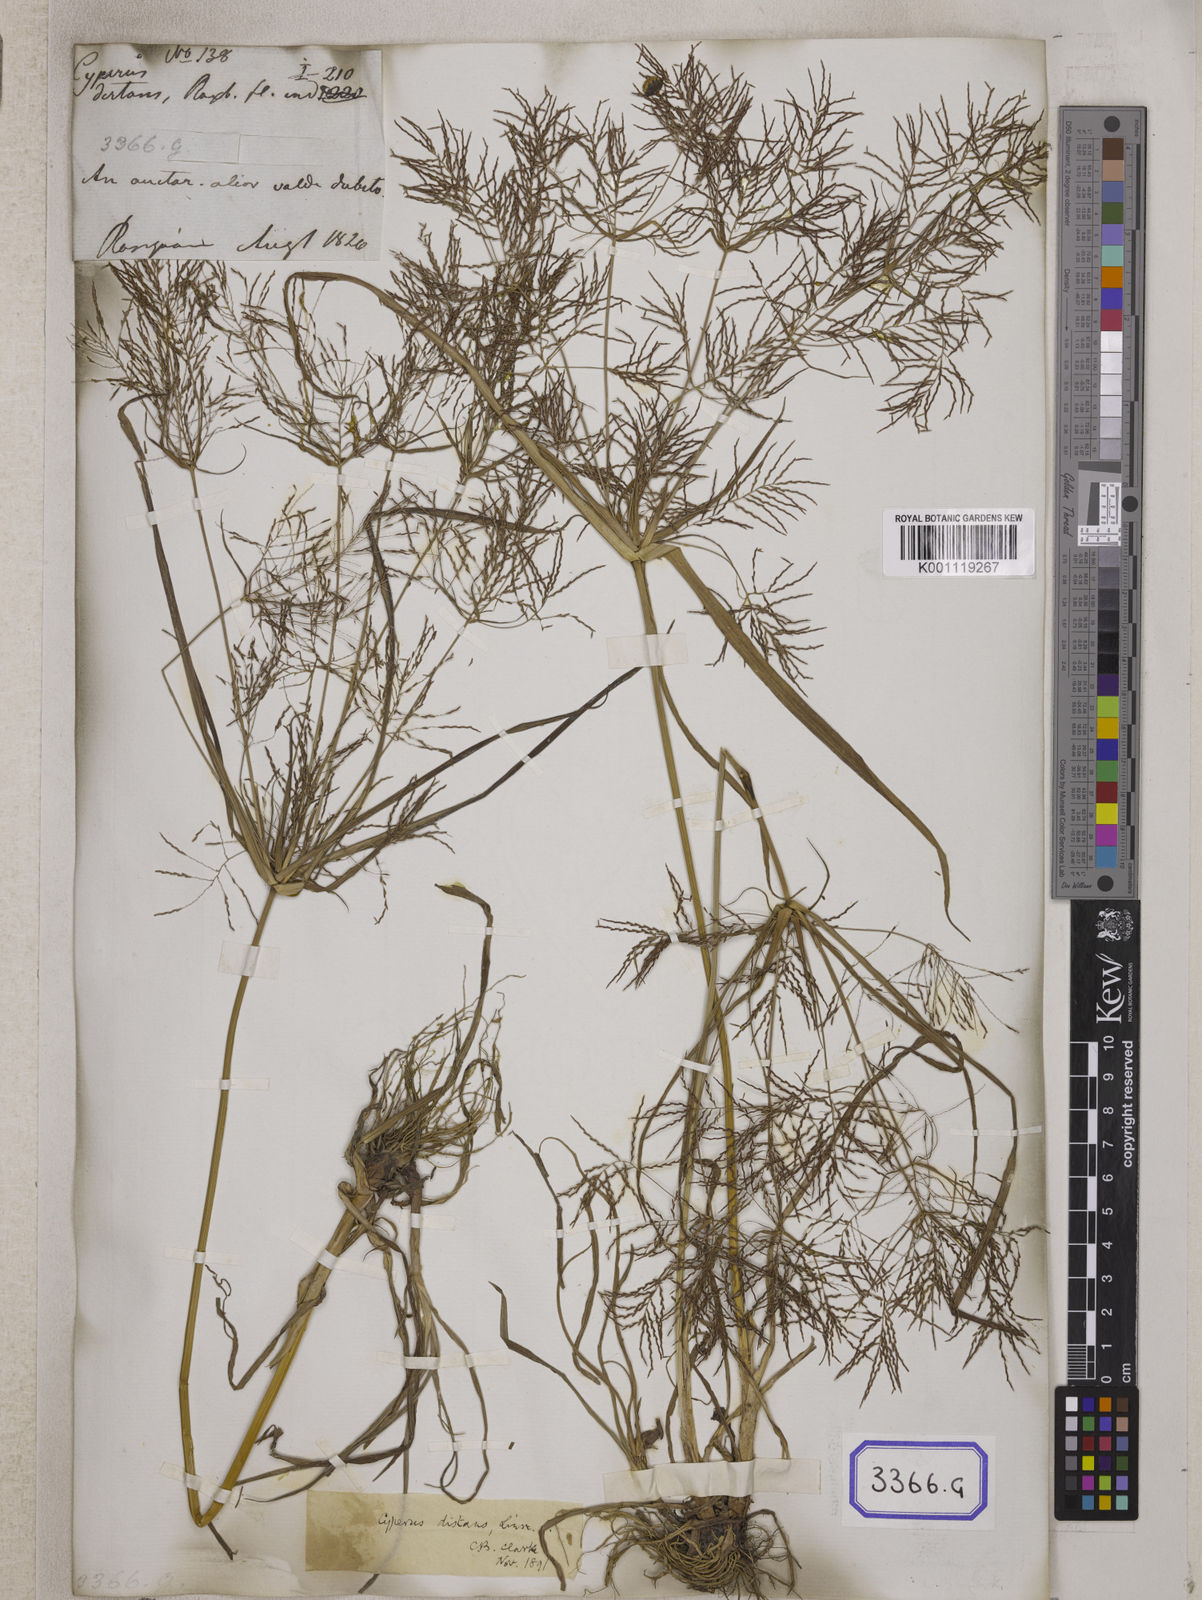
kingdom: Plantae
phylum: Tracheophyta
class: Liliopsida
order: Poales
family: Cyperaceae
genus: Cyperus
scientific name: Cyperus
